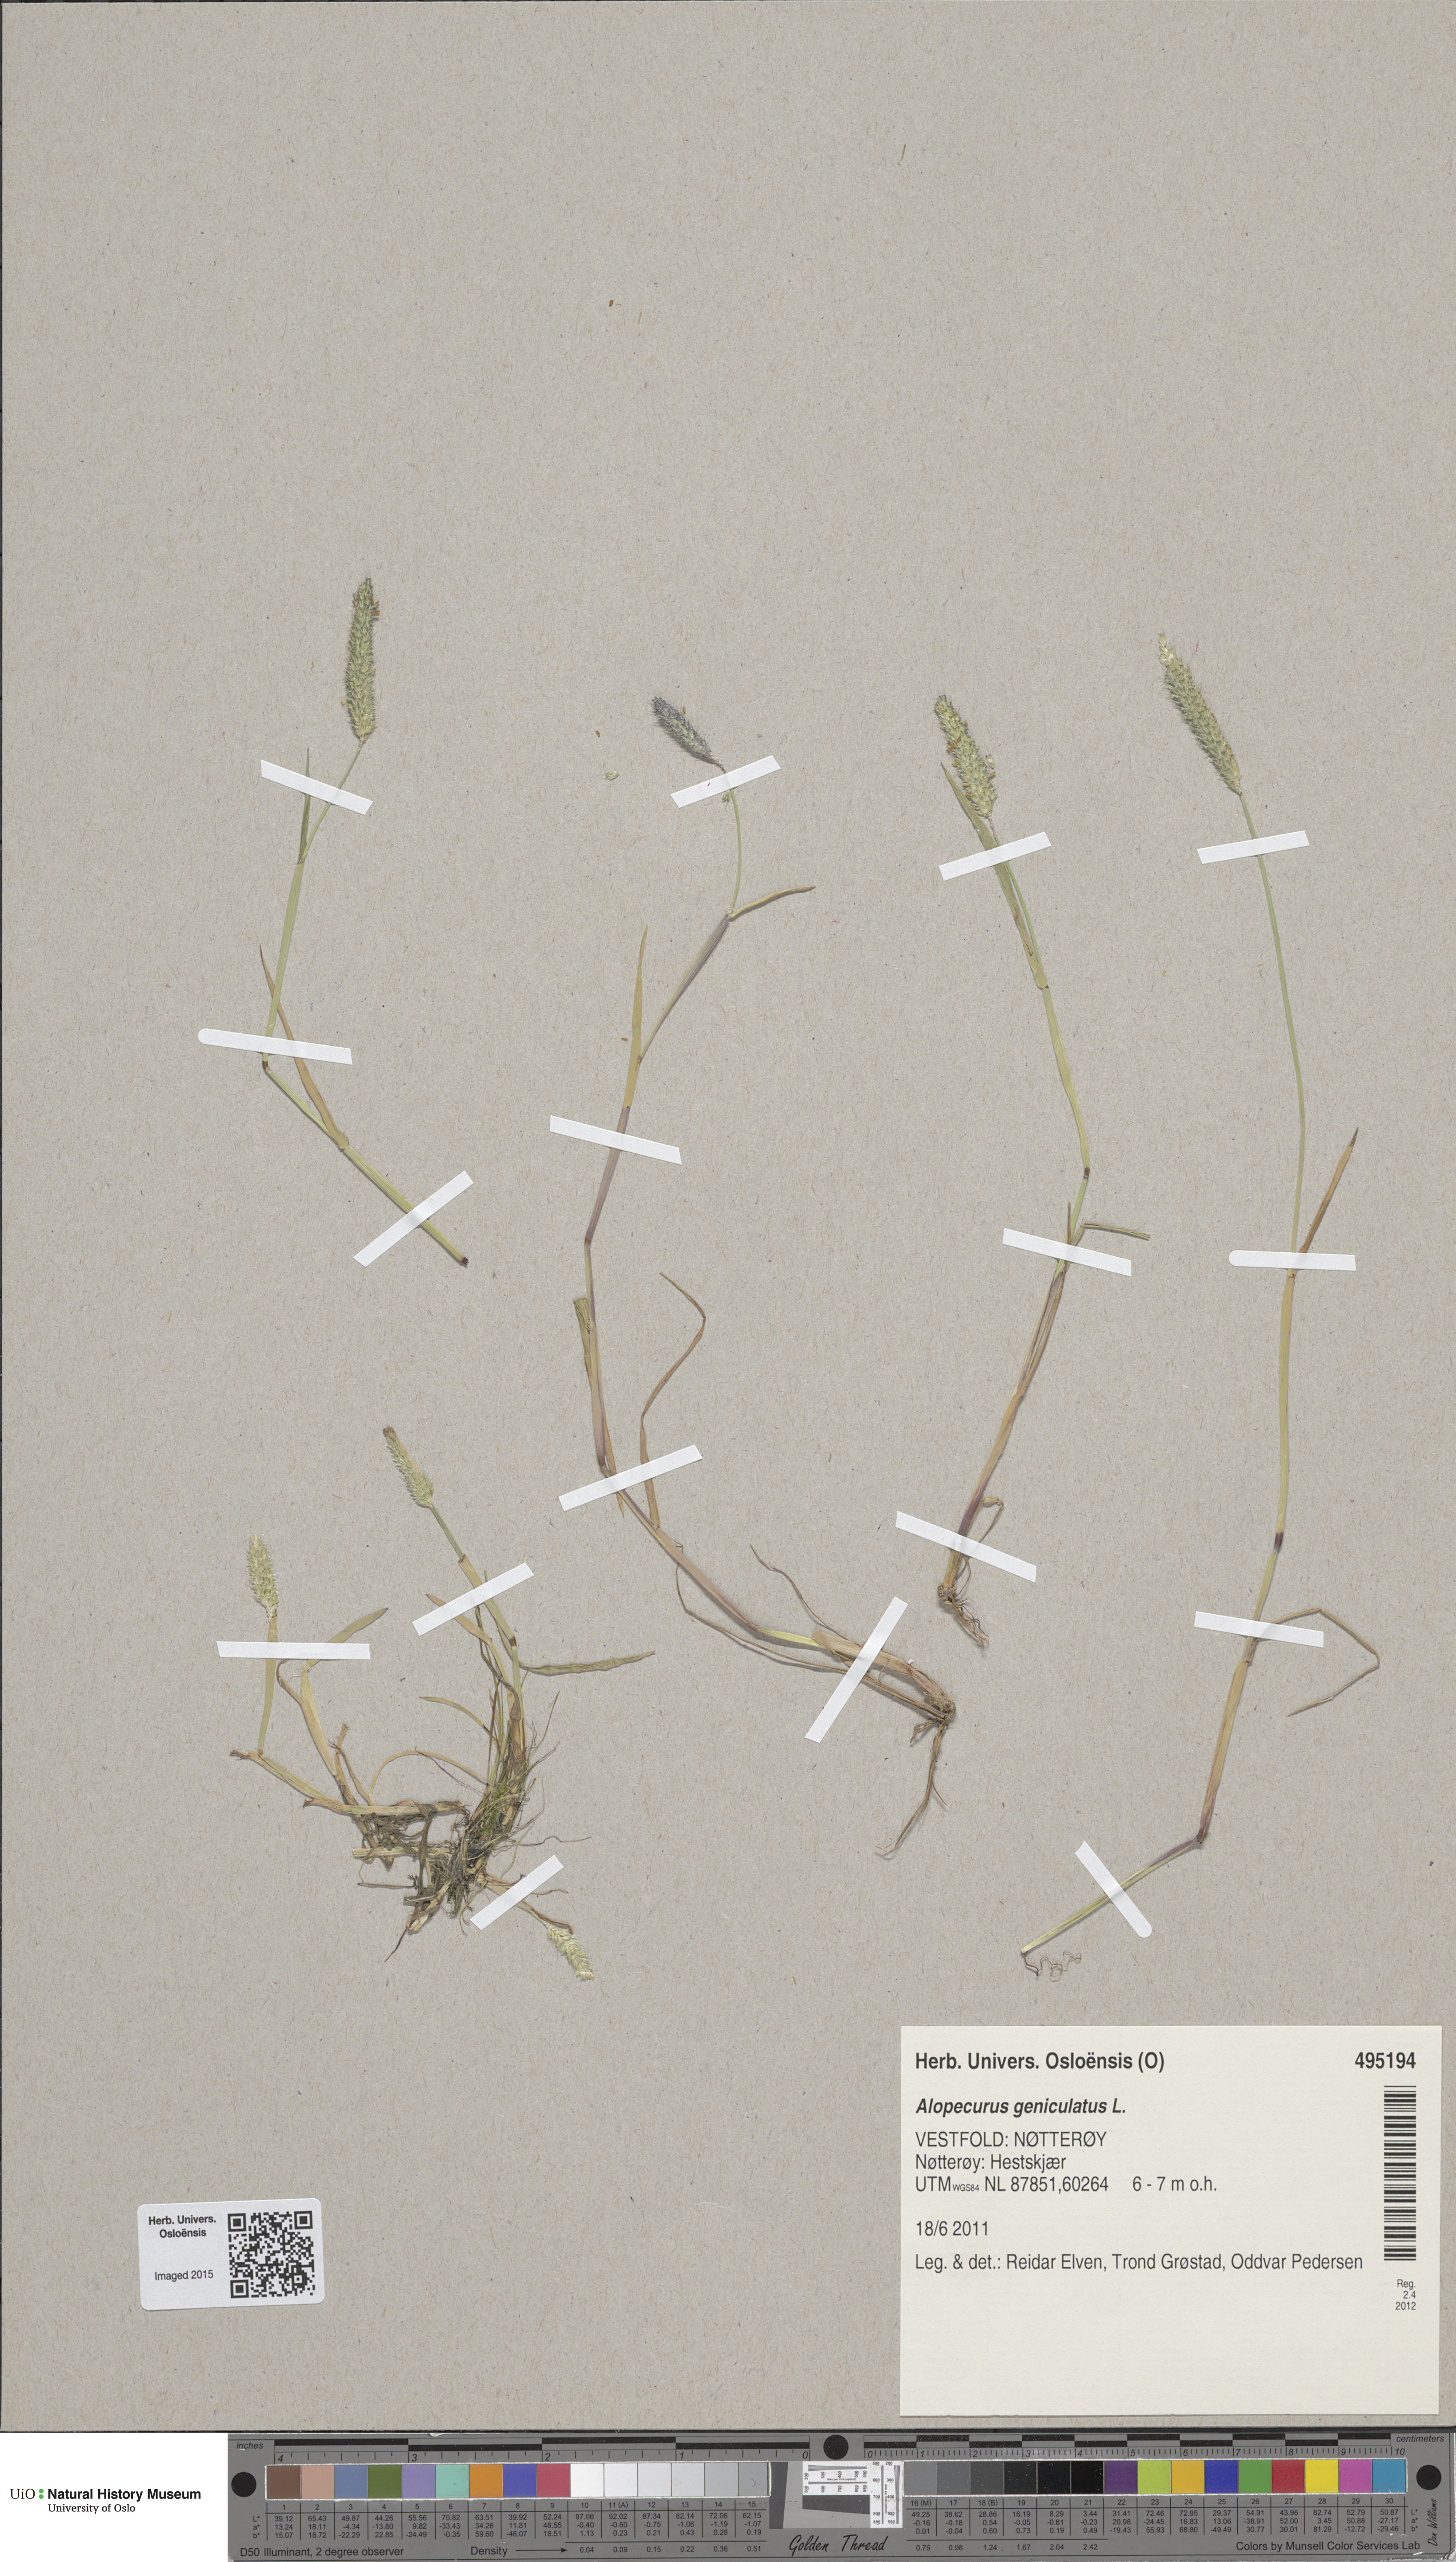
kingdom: Plantae
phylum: Tracheophyta
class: Liliopsida
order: Poales
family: Poaceae
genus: Alopecurus
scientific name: Alopecurus geniculatus
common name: Water foxtail
